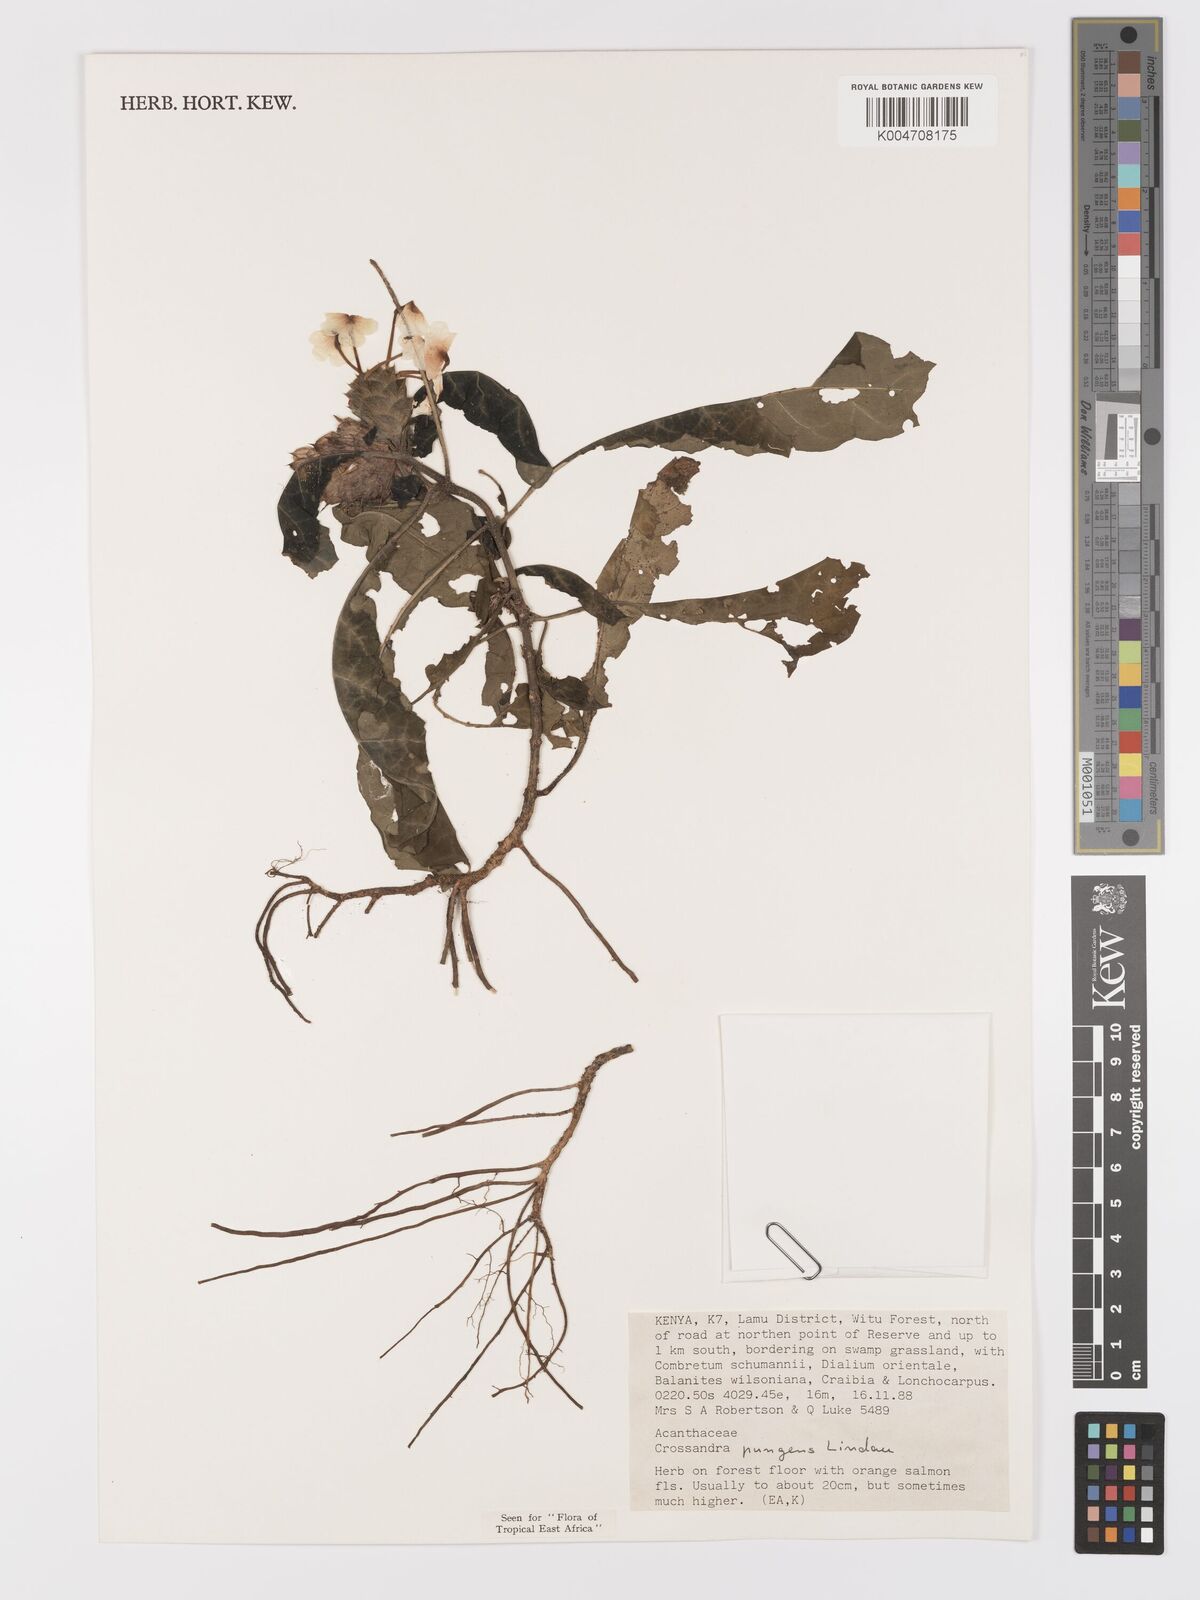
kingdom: Plantae
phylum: Tracheophyta
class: Magnoliopsida
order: Lamiales
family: Acanthaceae
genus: Crossandra
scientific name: Crossandra pungens
